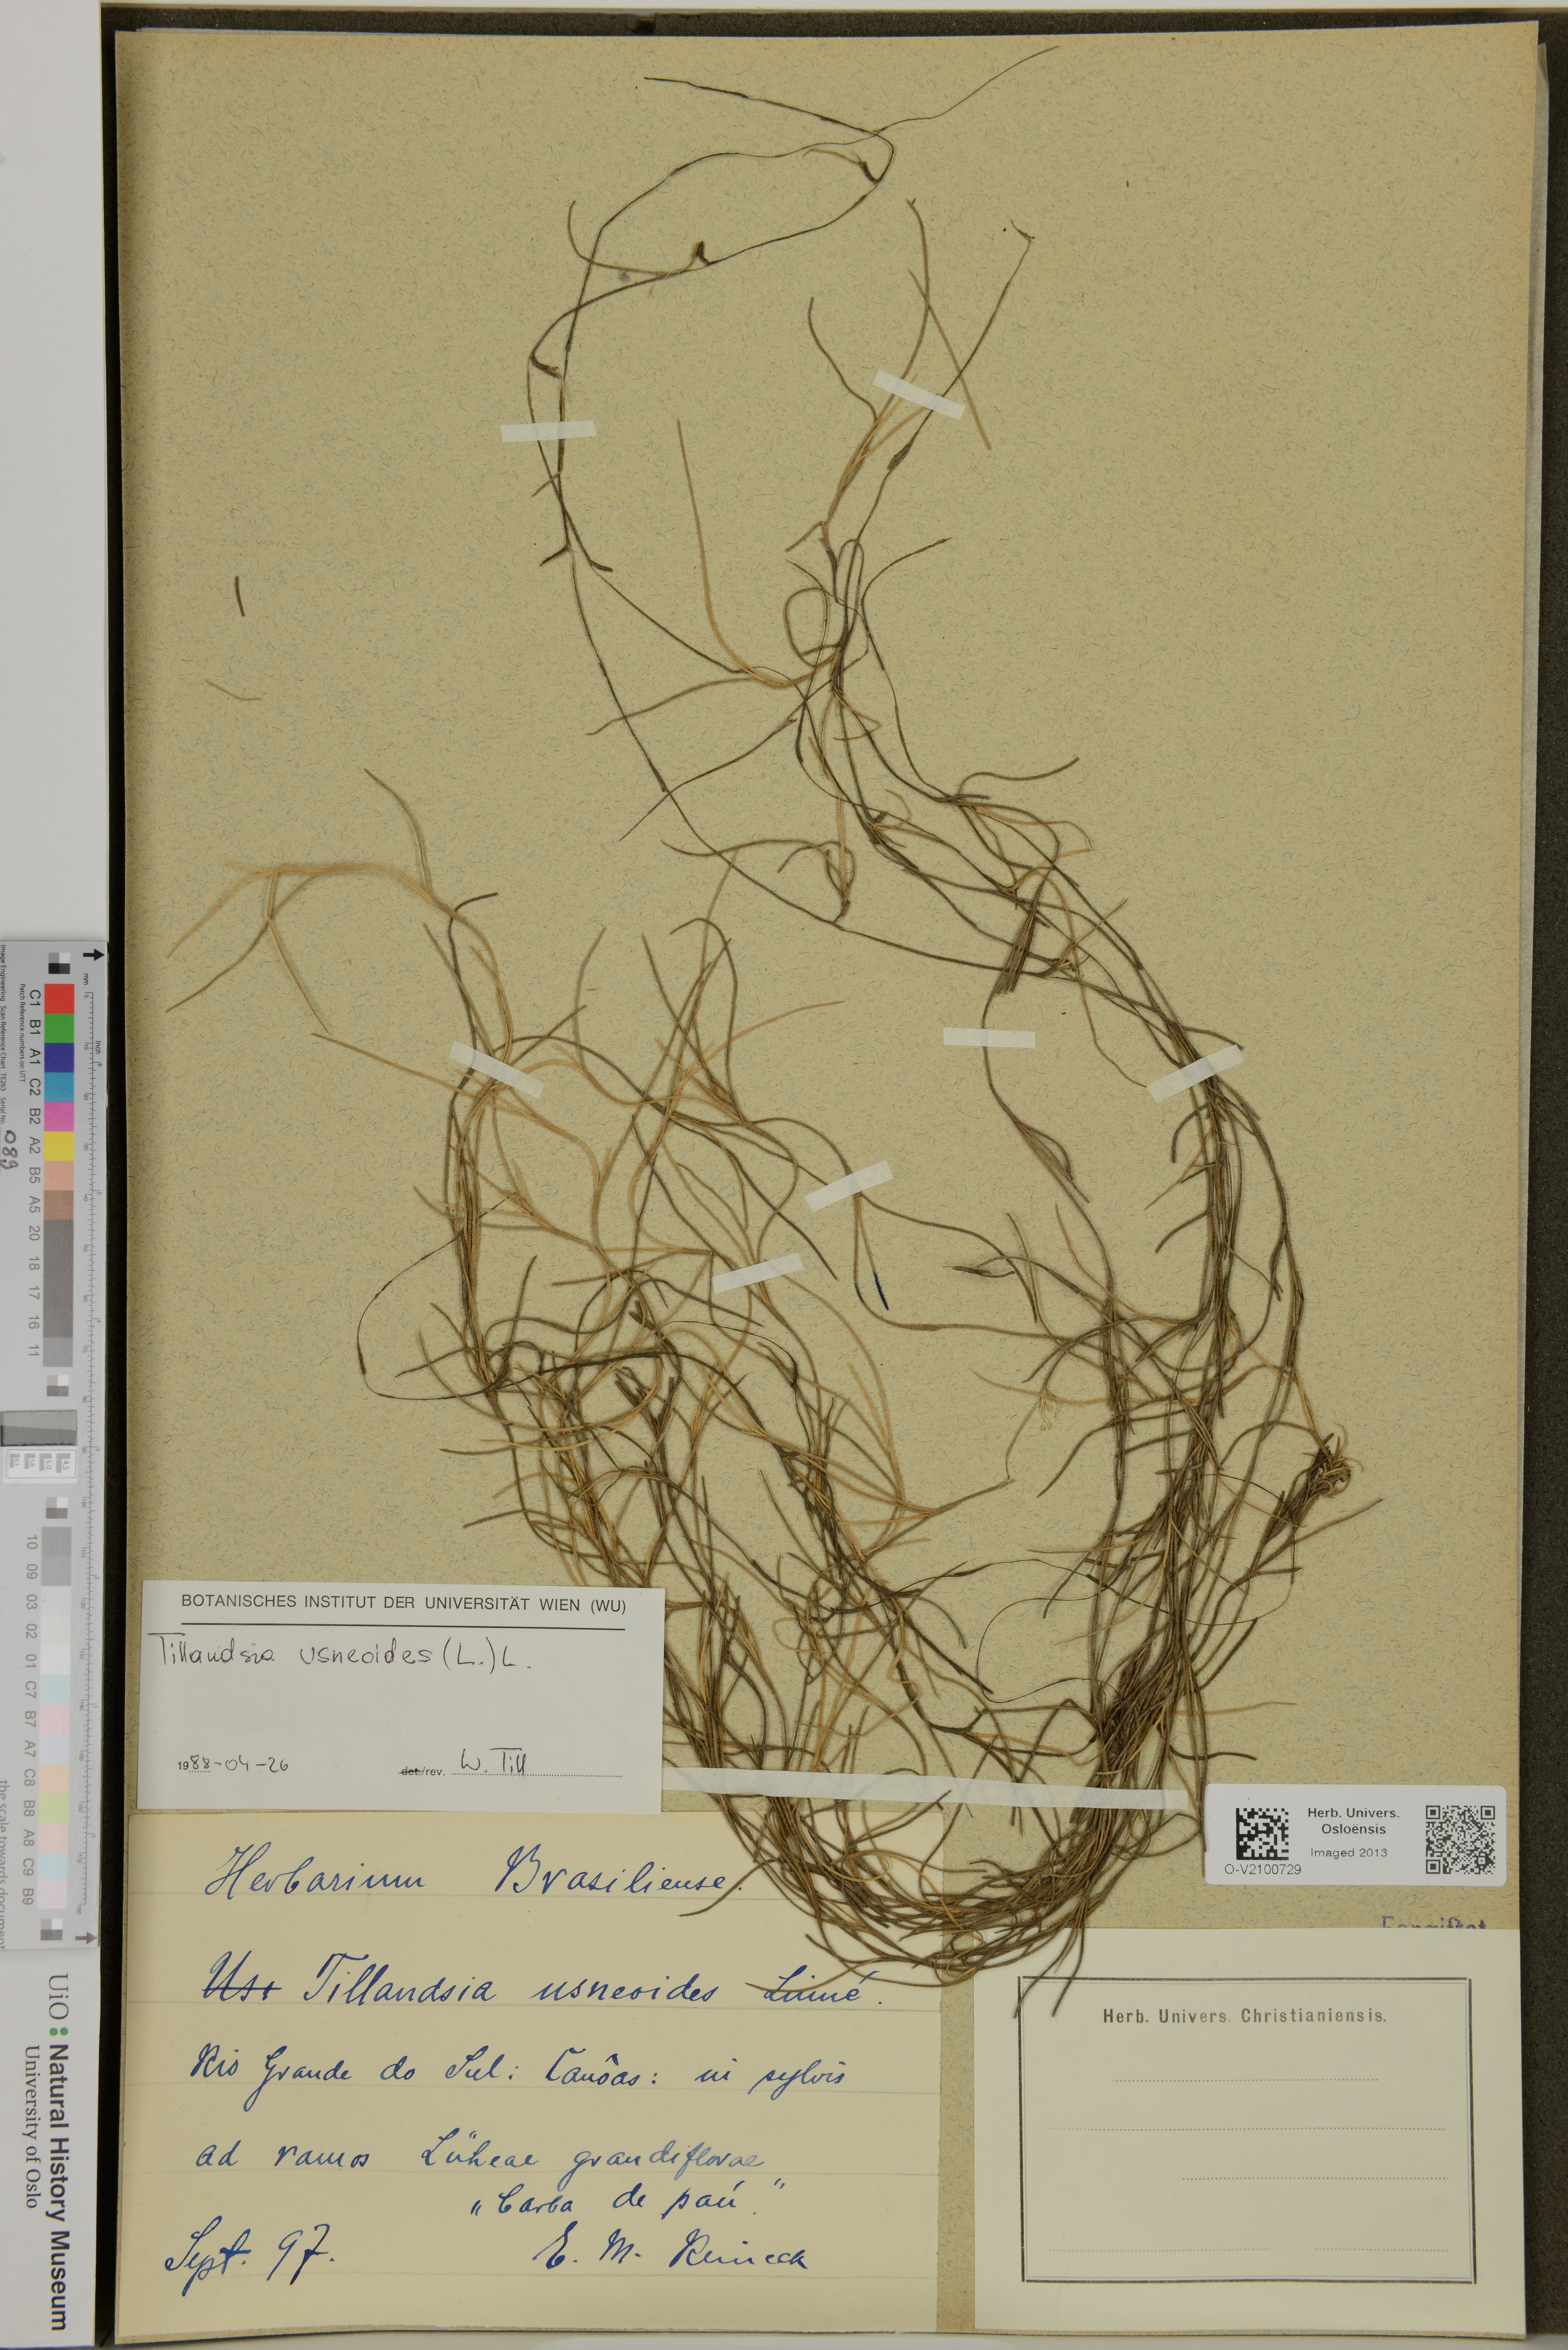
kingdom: Plantae
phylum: Tracheophyta
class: Liliopsida
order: Poales
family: Bromeliaceae
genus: Tillandsia
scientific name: Tillandsia usneoides
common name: Spanish moss
